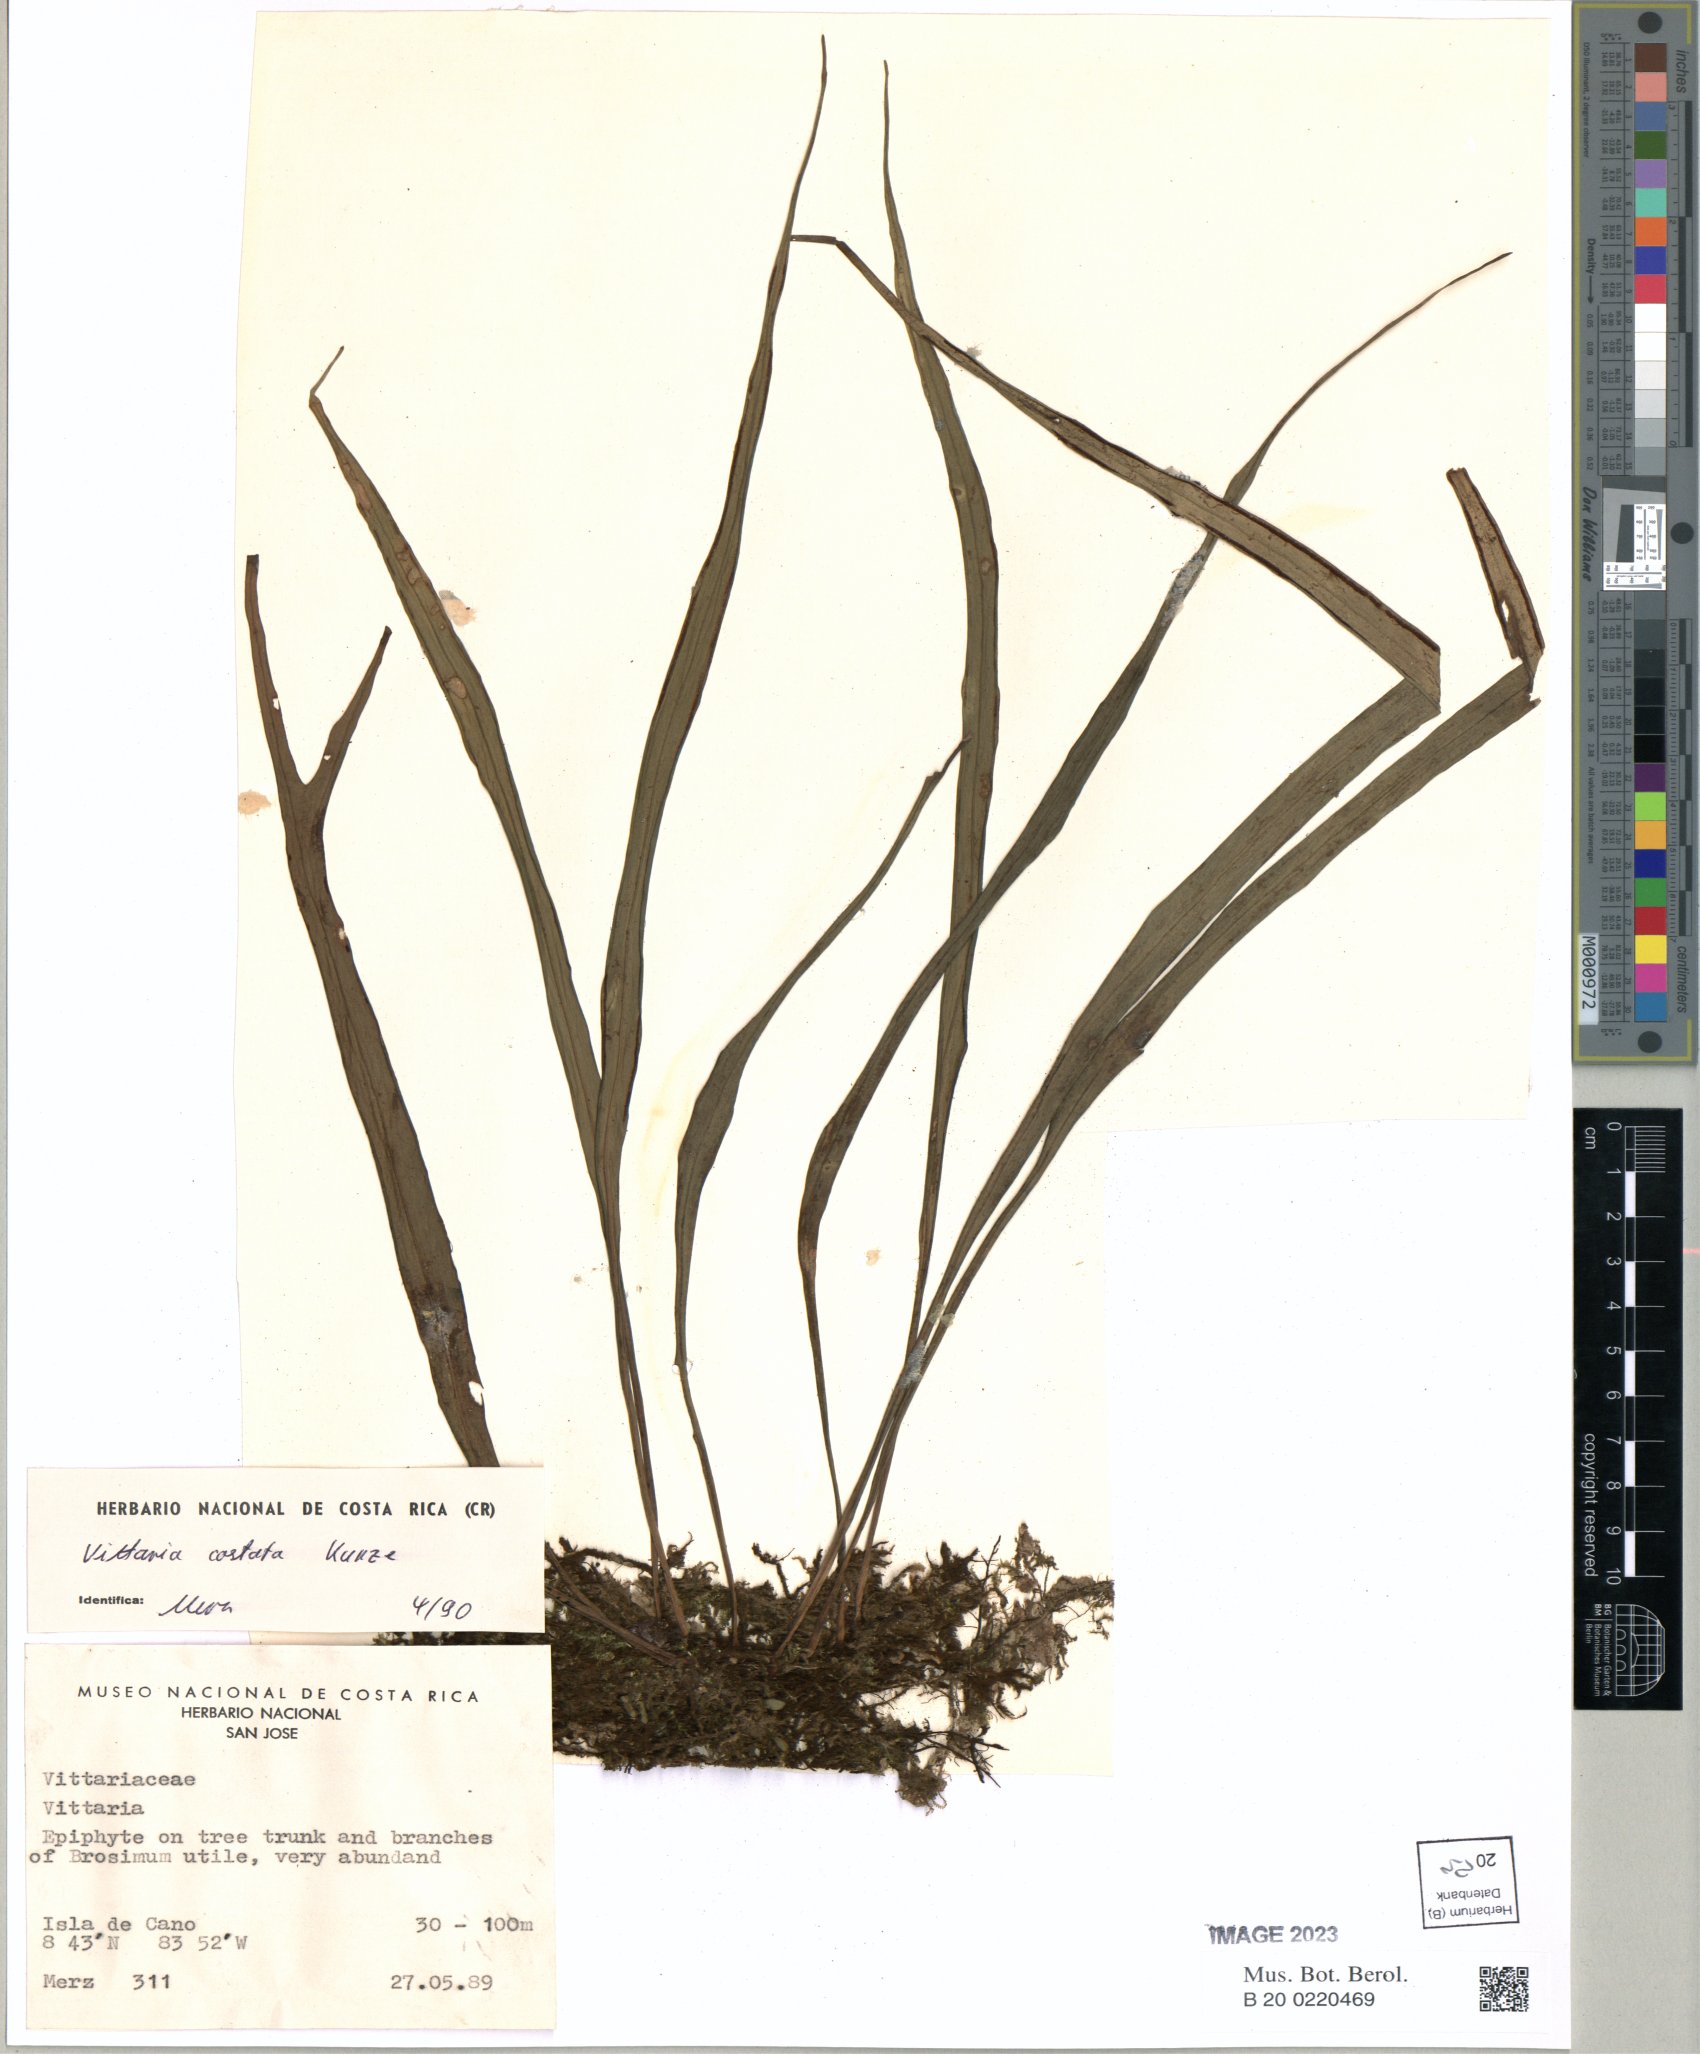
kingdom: Plantae
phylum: Tracheophyta
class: Polypodiopsida
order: Polypodiales
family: Pteridaceae
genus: Ananthacorus
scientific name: Ananthacorus angustifolius
